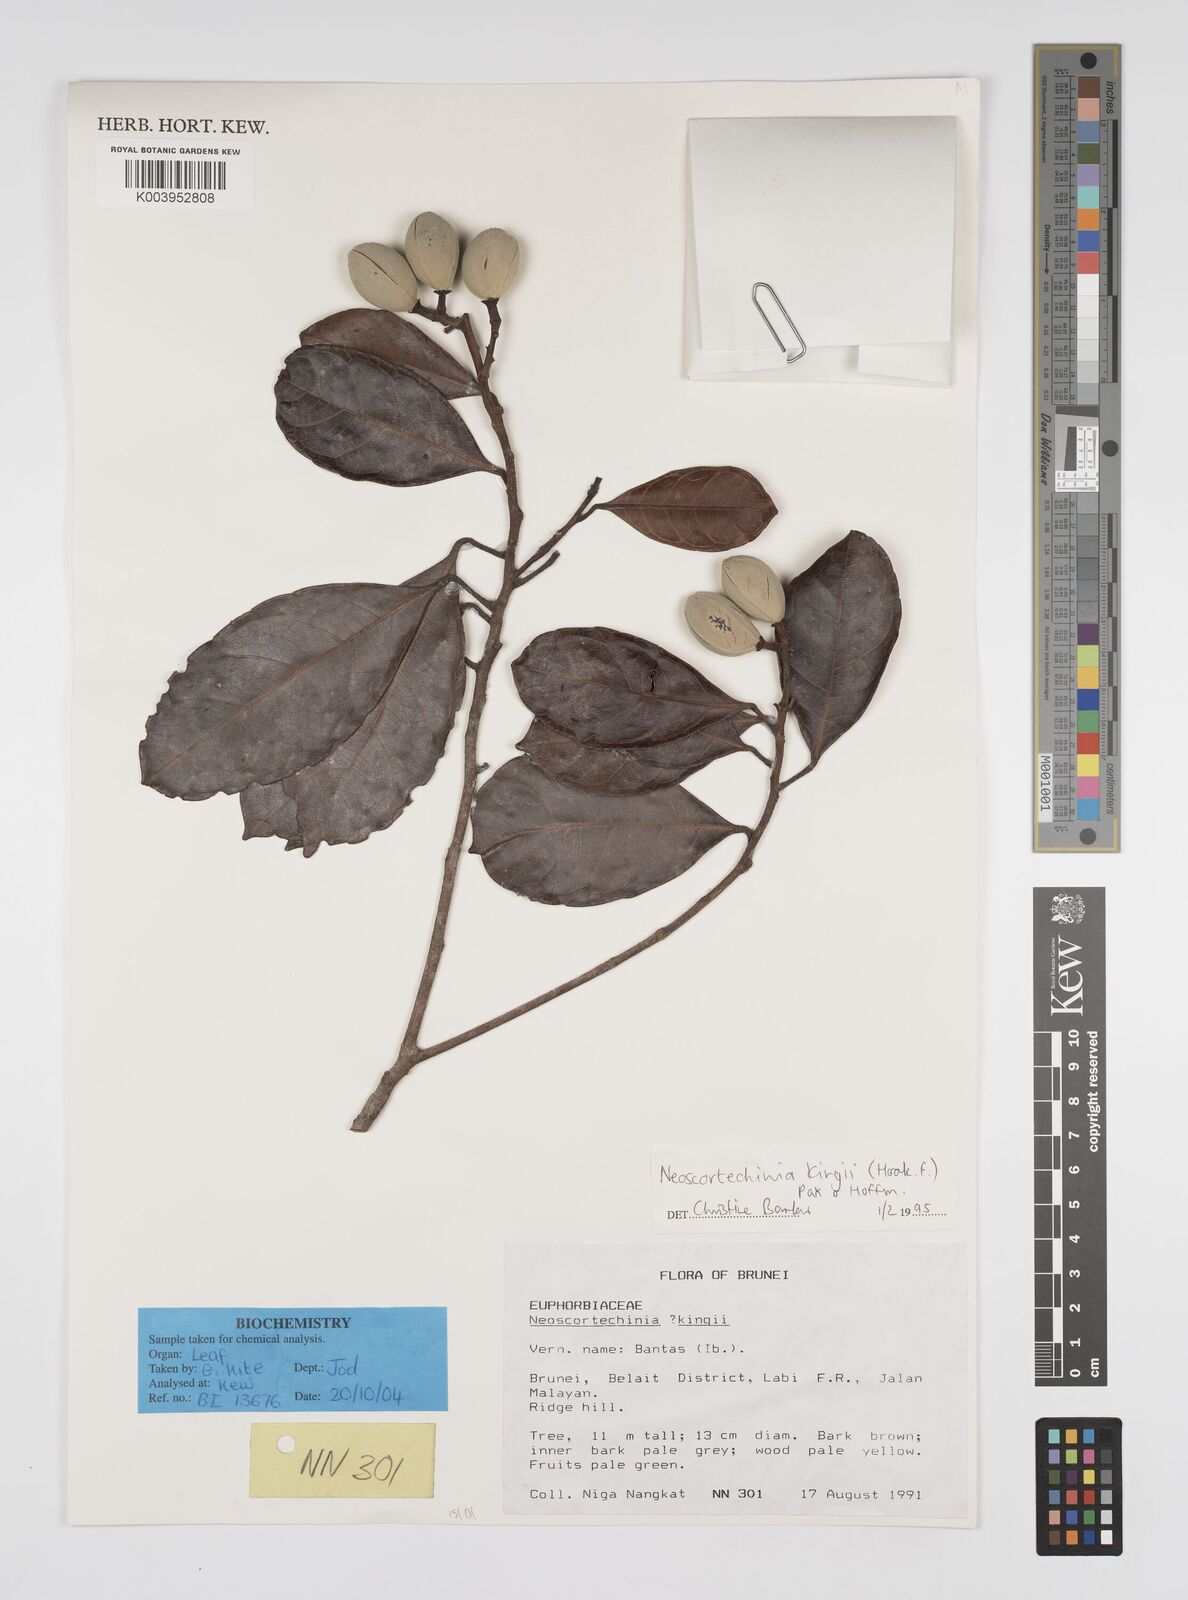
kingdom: Plantae
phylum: Tracheophyta
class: Magnoliopsida
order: Malpighiales
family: Euphorbiaceae
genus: Neoscortechinia
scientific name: Neoscortechinia kingii
